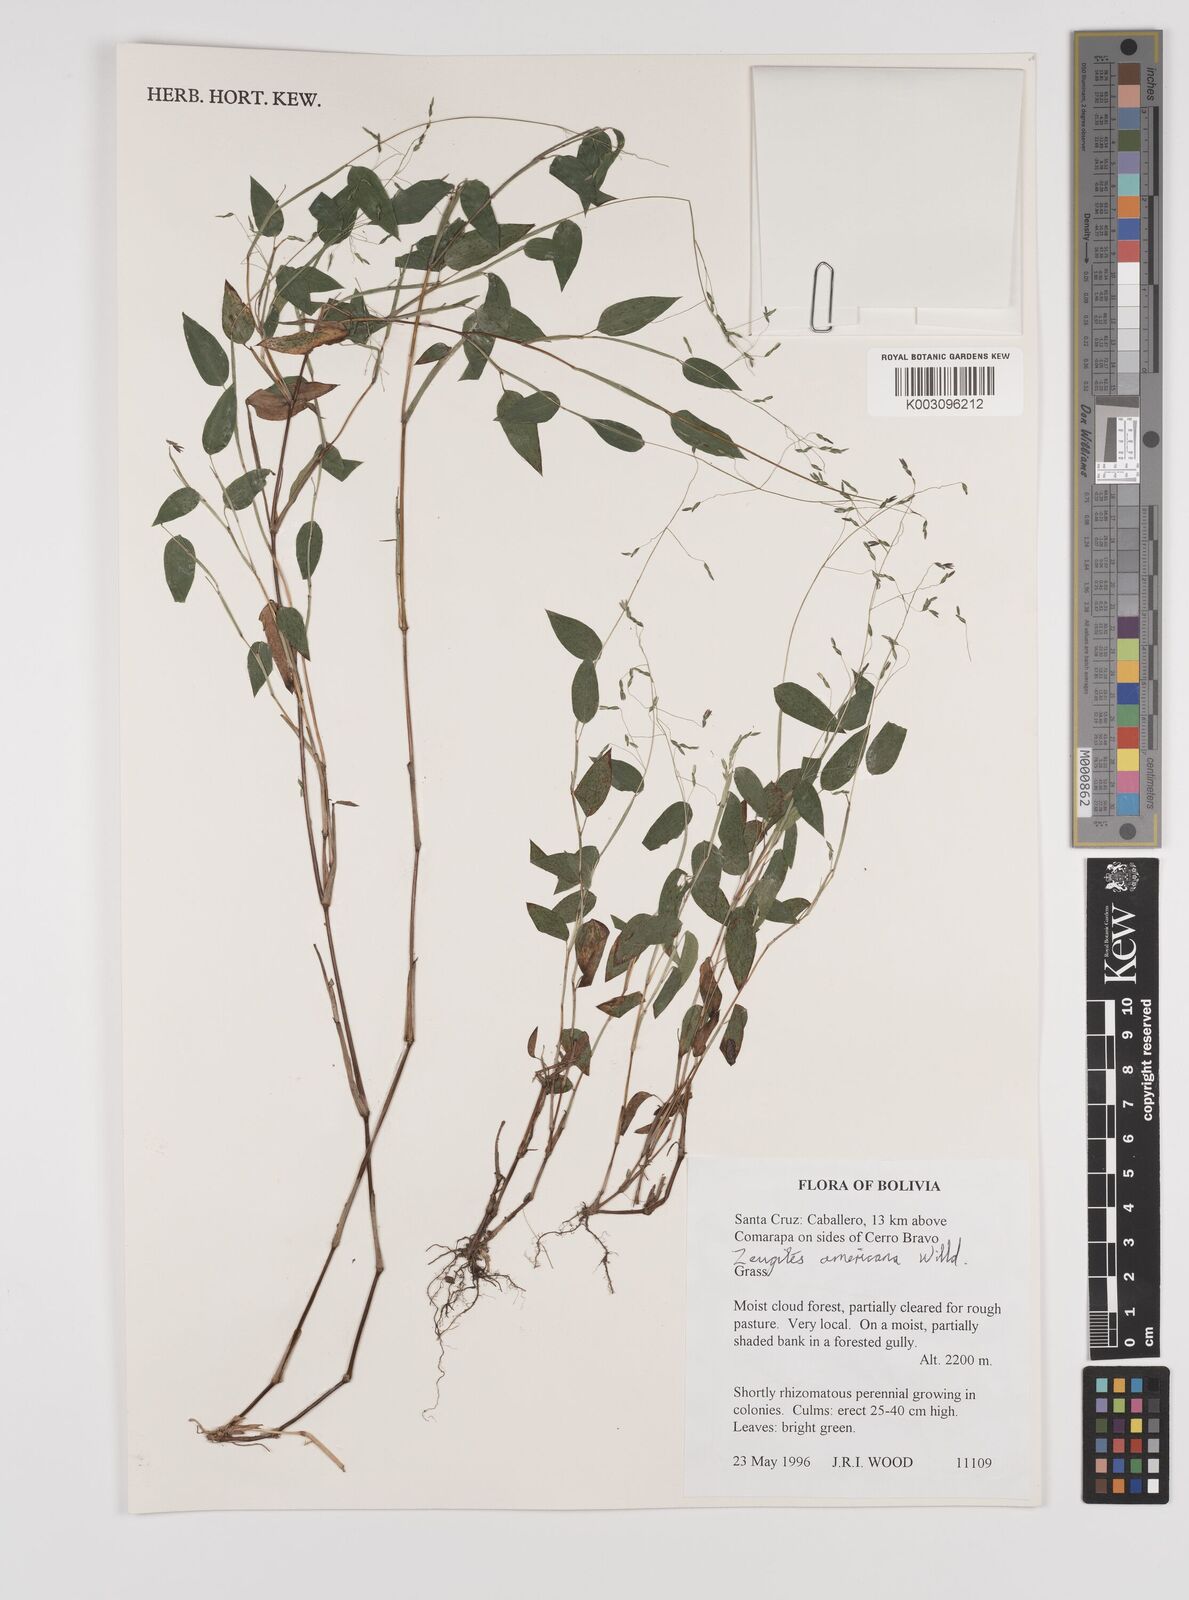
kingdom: Plantae
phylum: Tracheophyta
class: Liliopsida
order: Poales
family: Poaceae
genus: Zeugites
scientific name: Zeugites americanus
